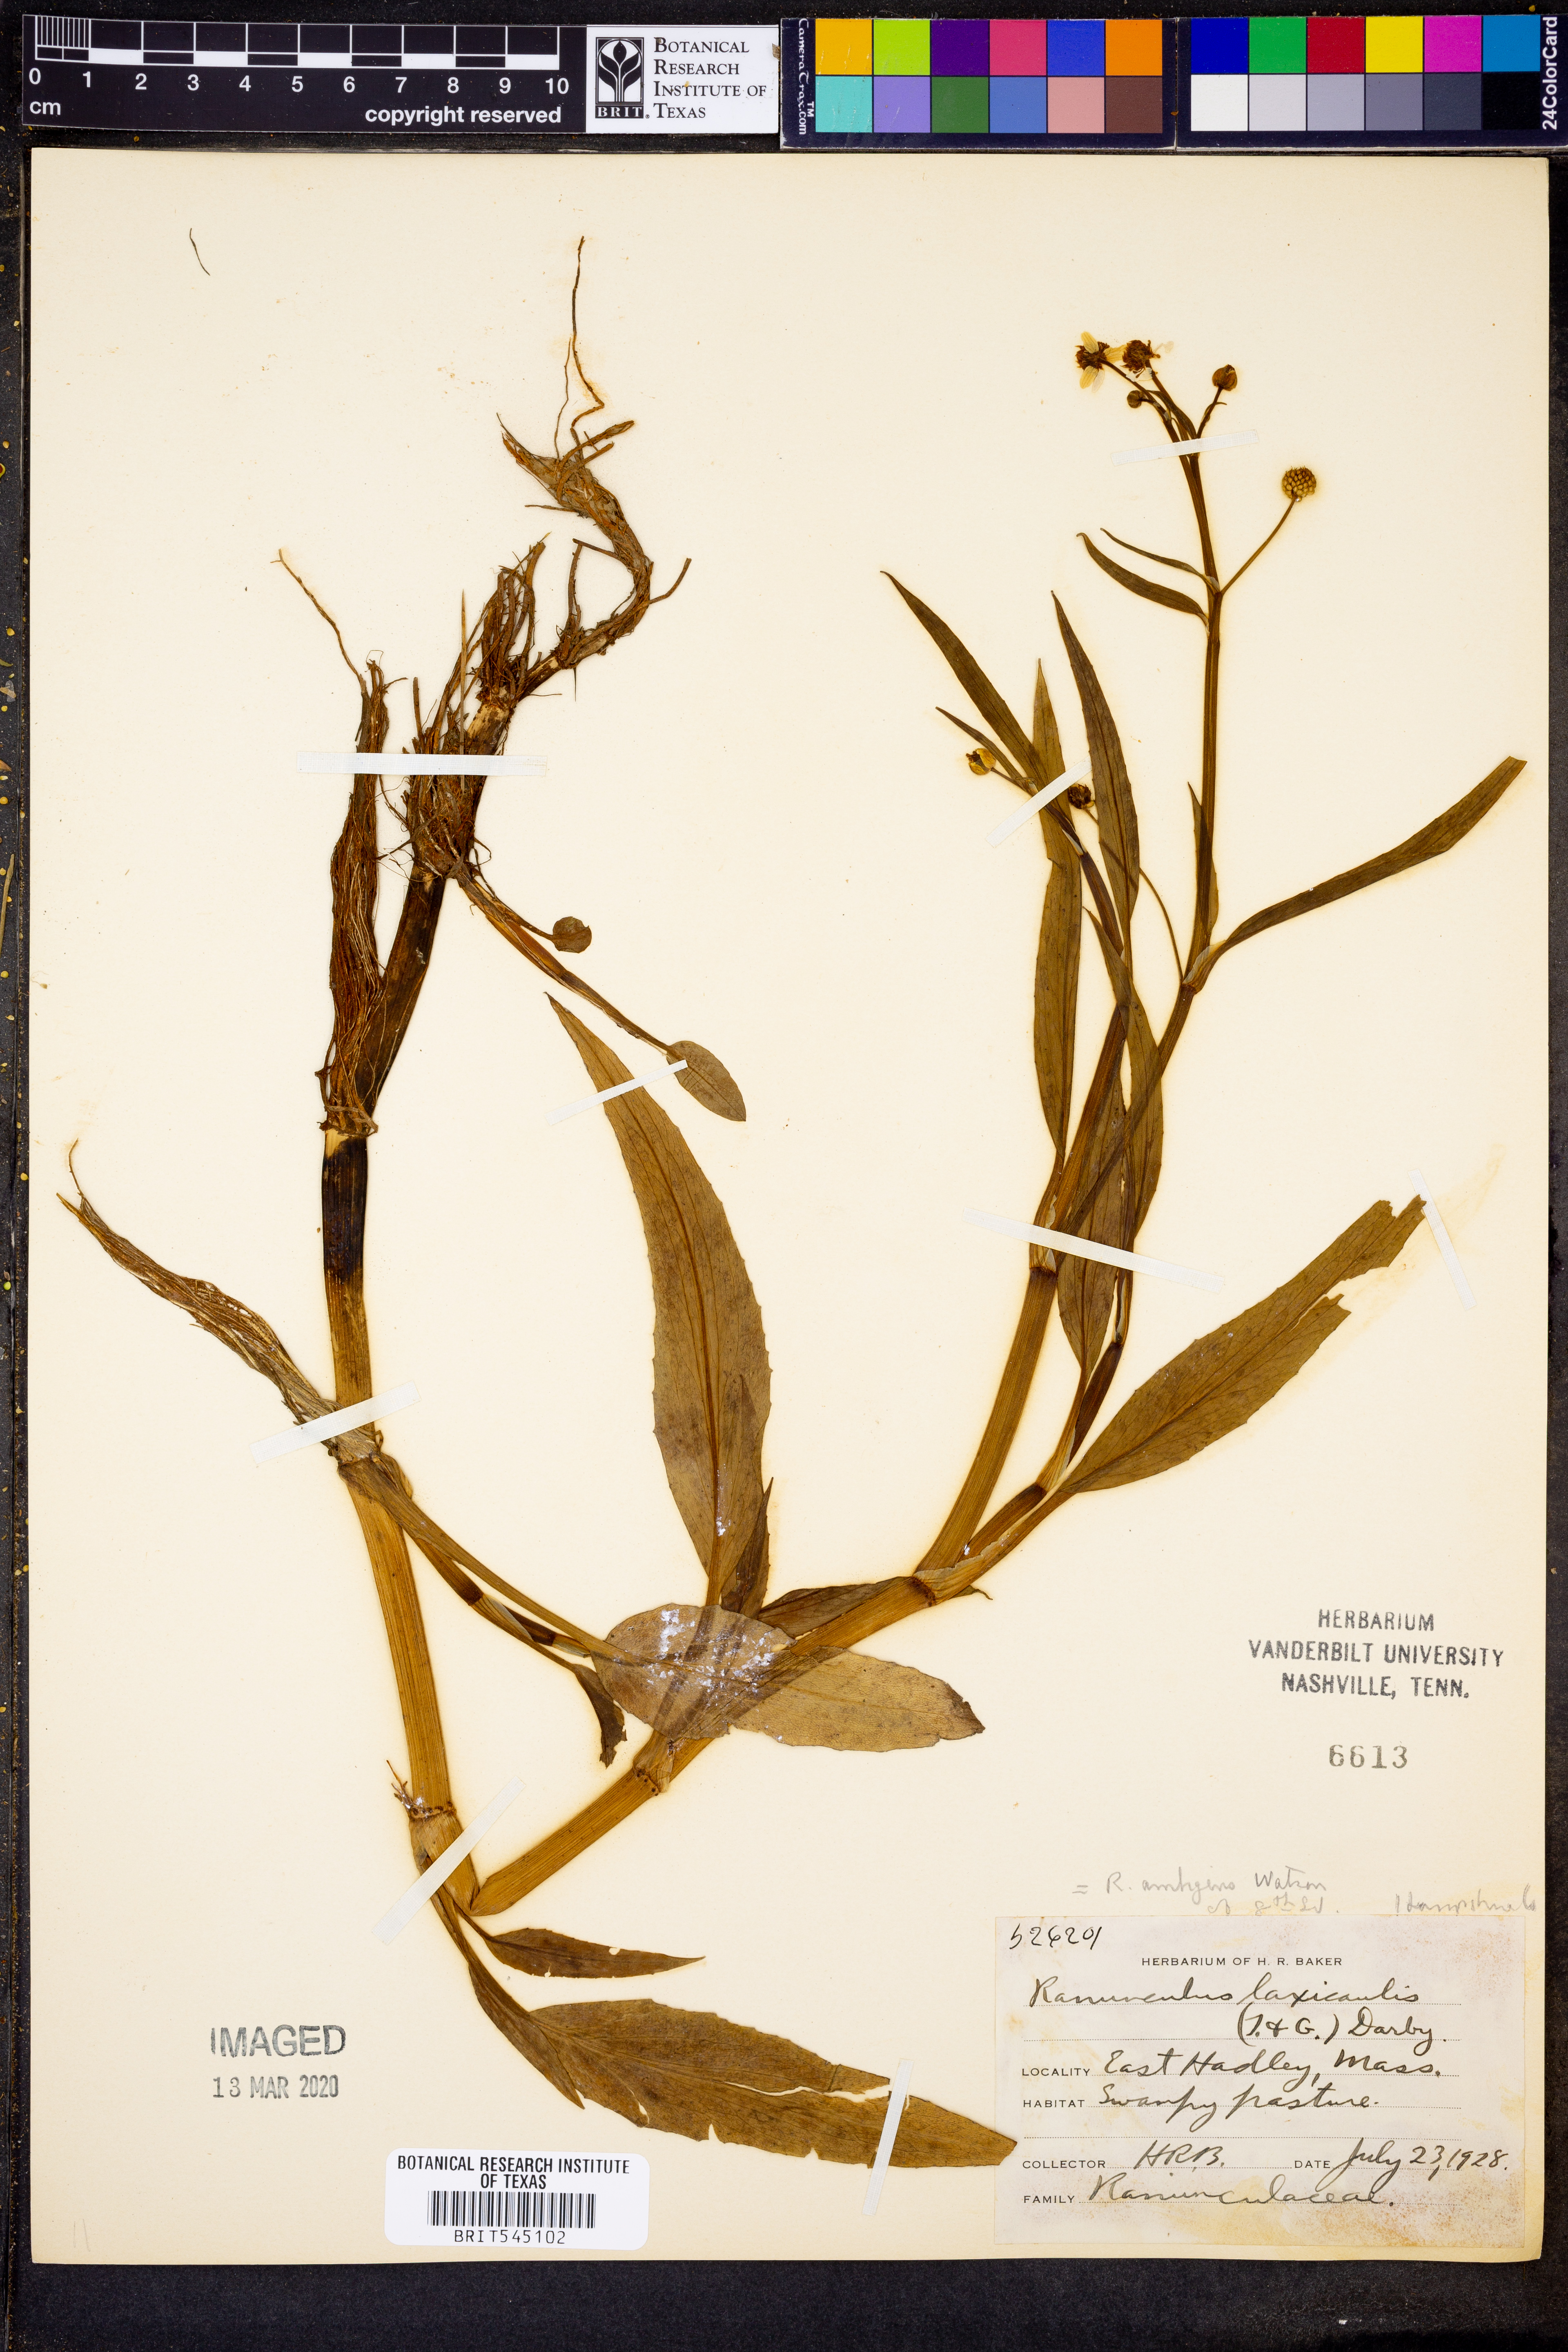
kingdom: Plantae
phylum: Tracheophyta
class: Magnoliopsida
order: Ranunculales
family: Ranunculaceae
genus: Ranunculus
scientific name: Ranunculus ambigens
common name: Water-plantain crowfoot
